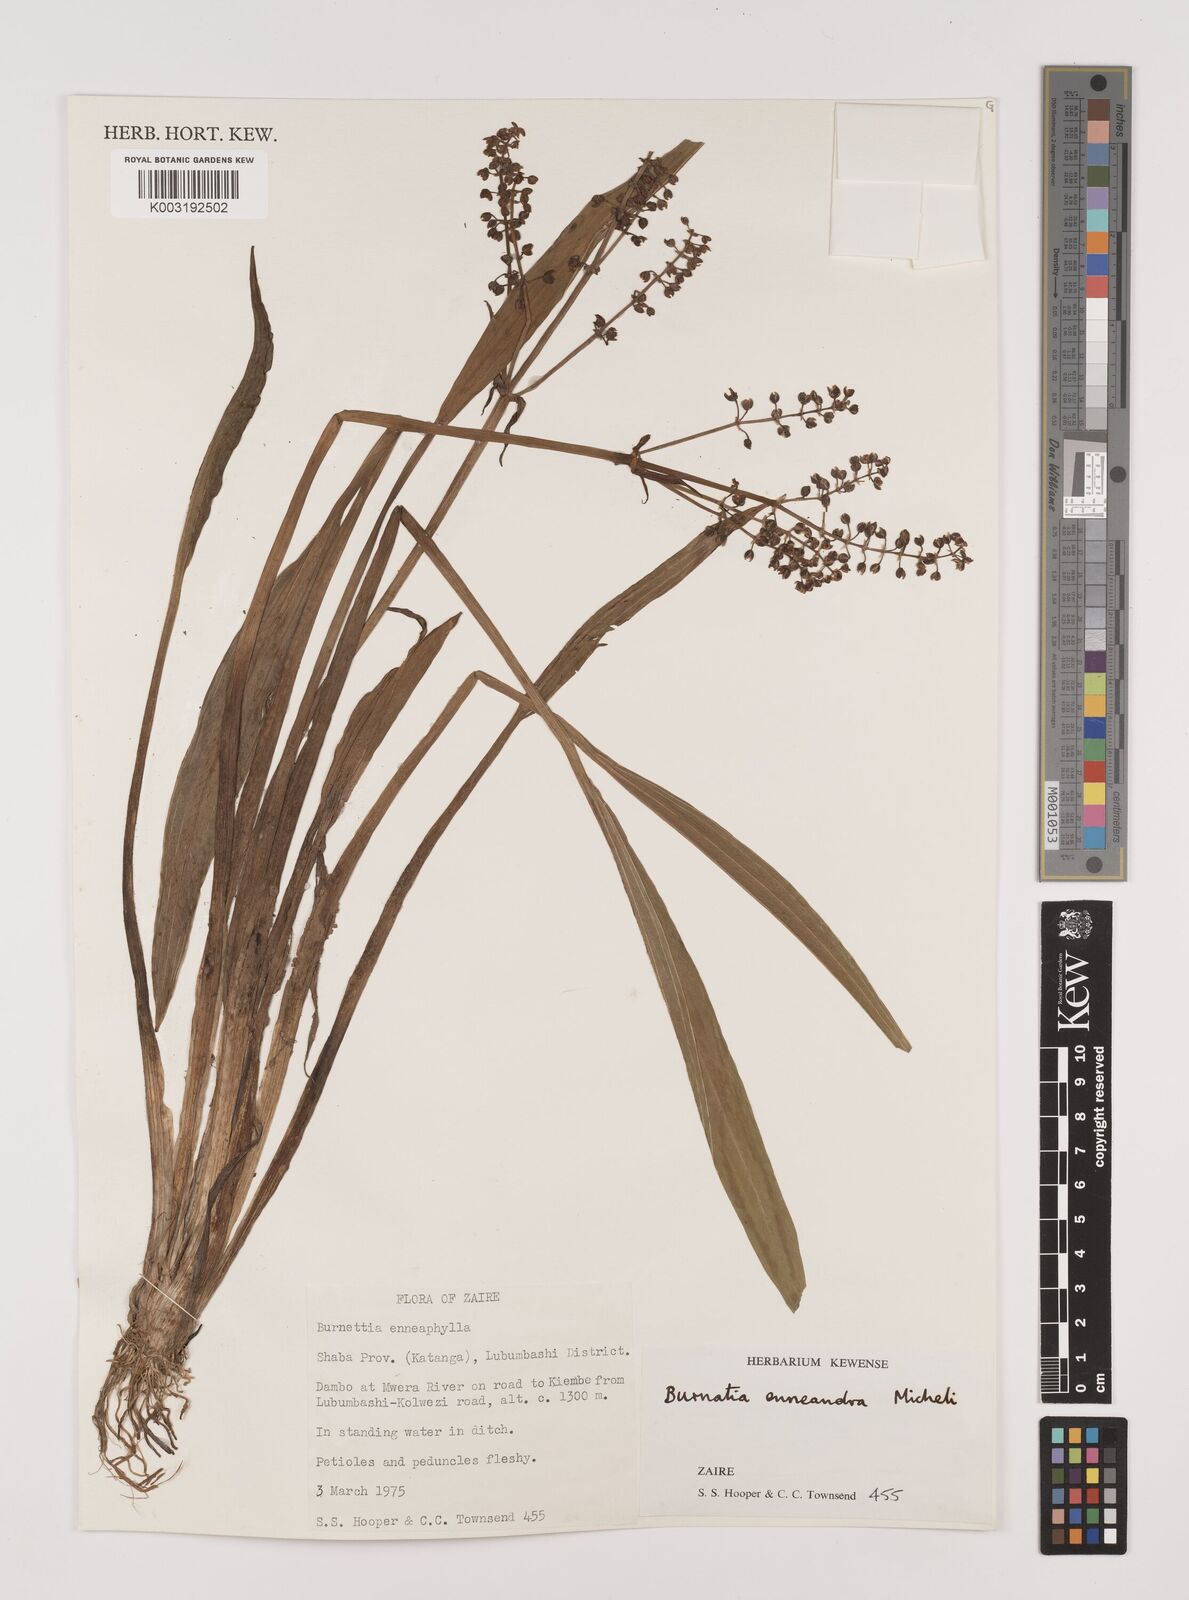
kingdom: Plantae
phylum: Tracheophyta
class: Liliopsida
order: Alismatales
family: Alismataceae
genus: Burnatia
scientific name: Burnatia enneandra
